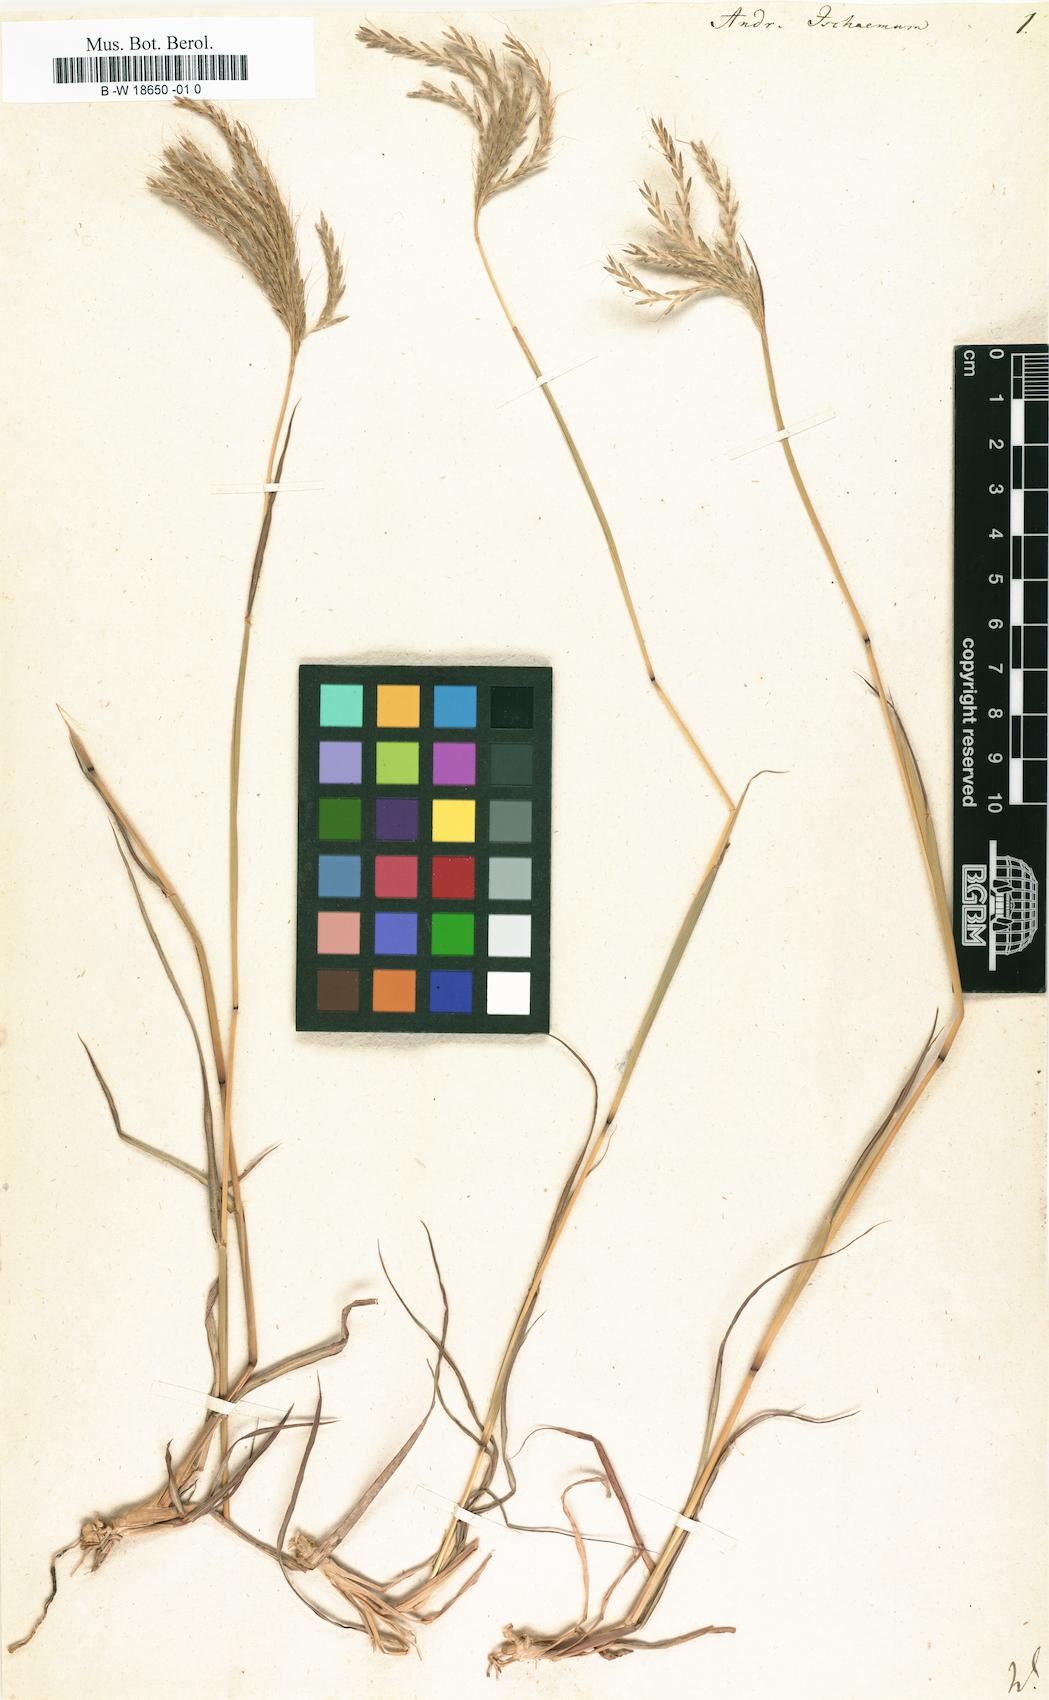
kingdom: Plantae
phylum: Tracheophyta
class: Liliopsida
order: Poales
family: Poaceae
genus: Andropogon
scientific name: Andropogon ischaemum
